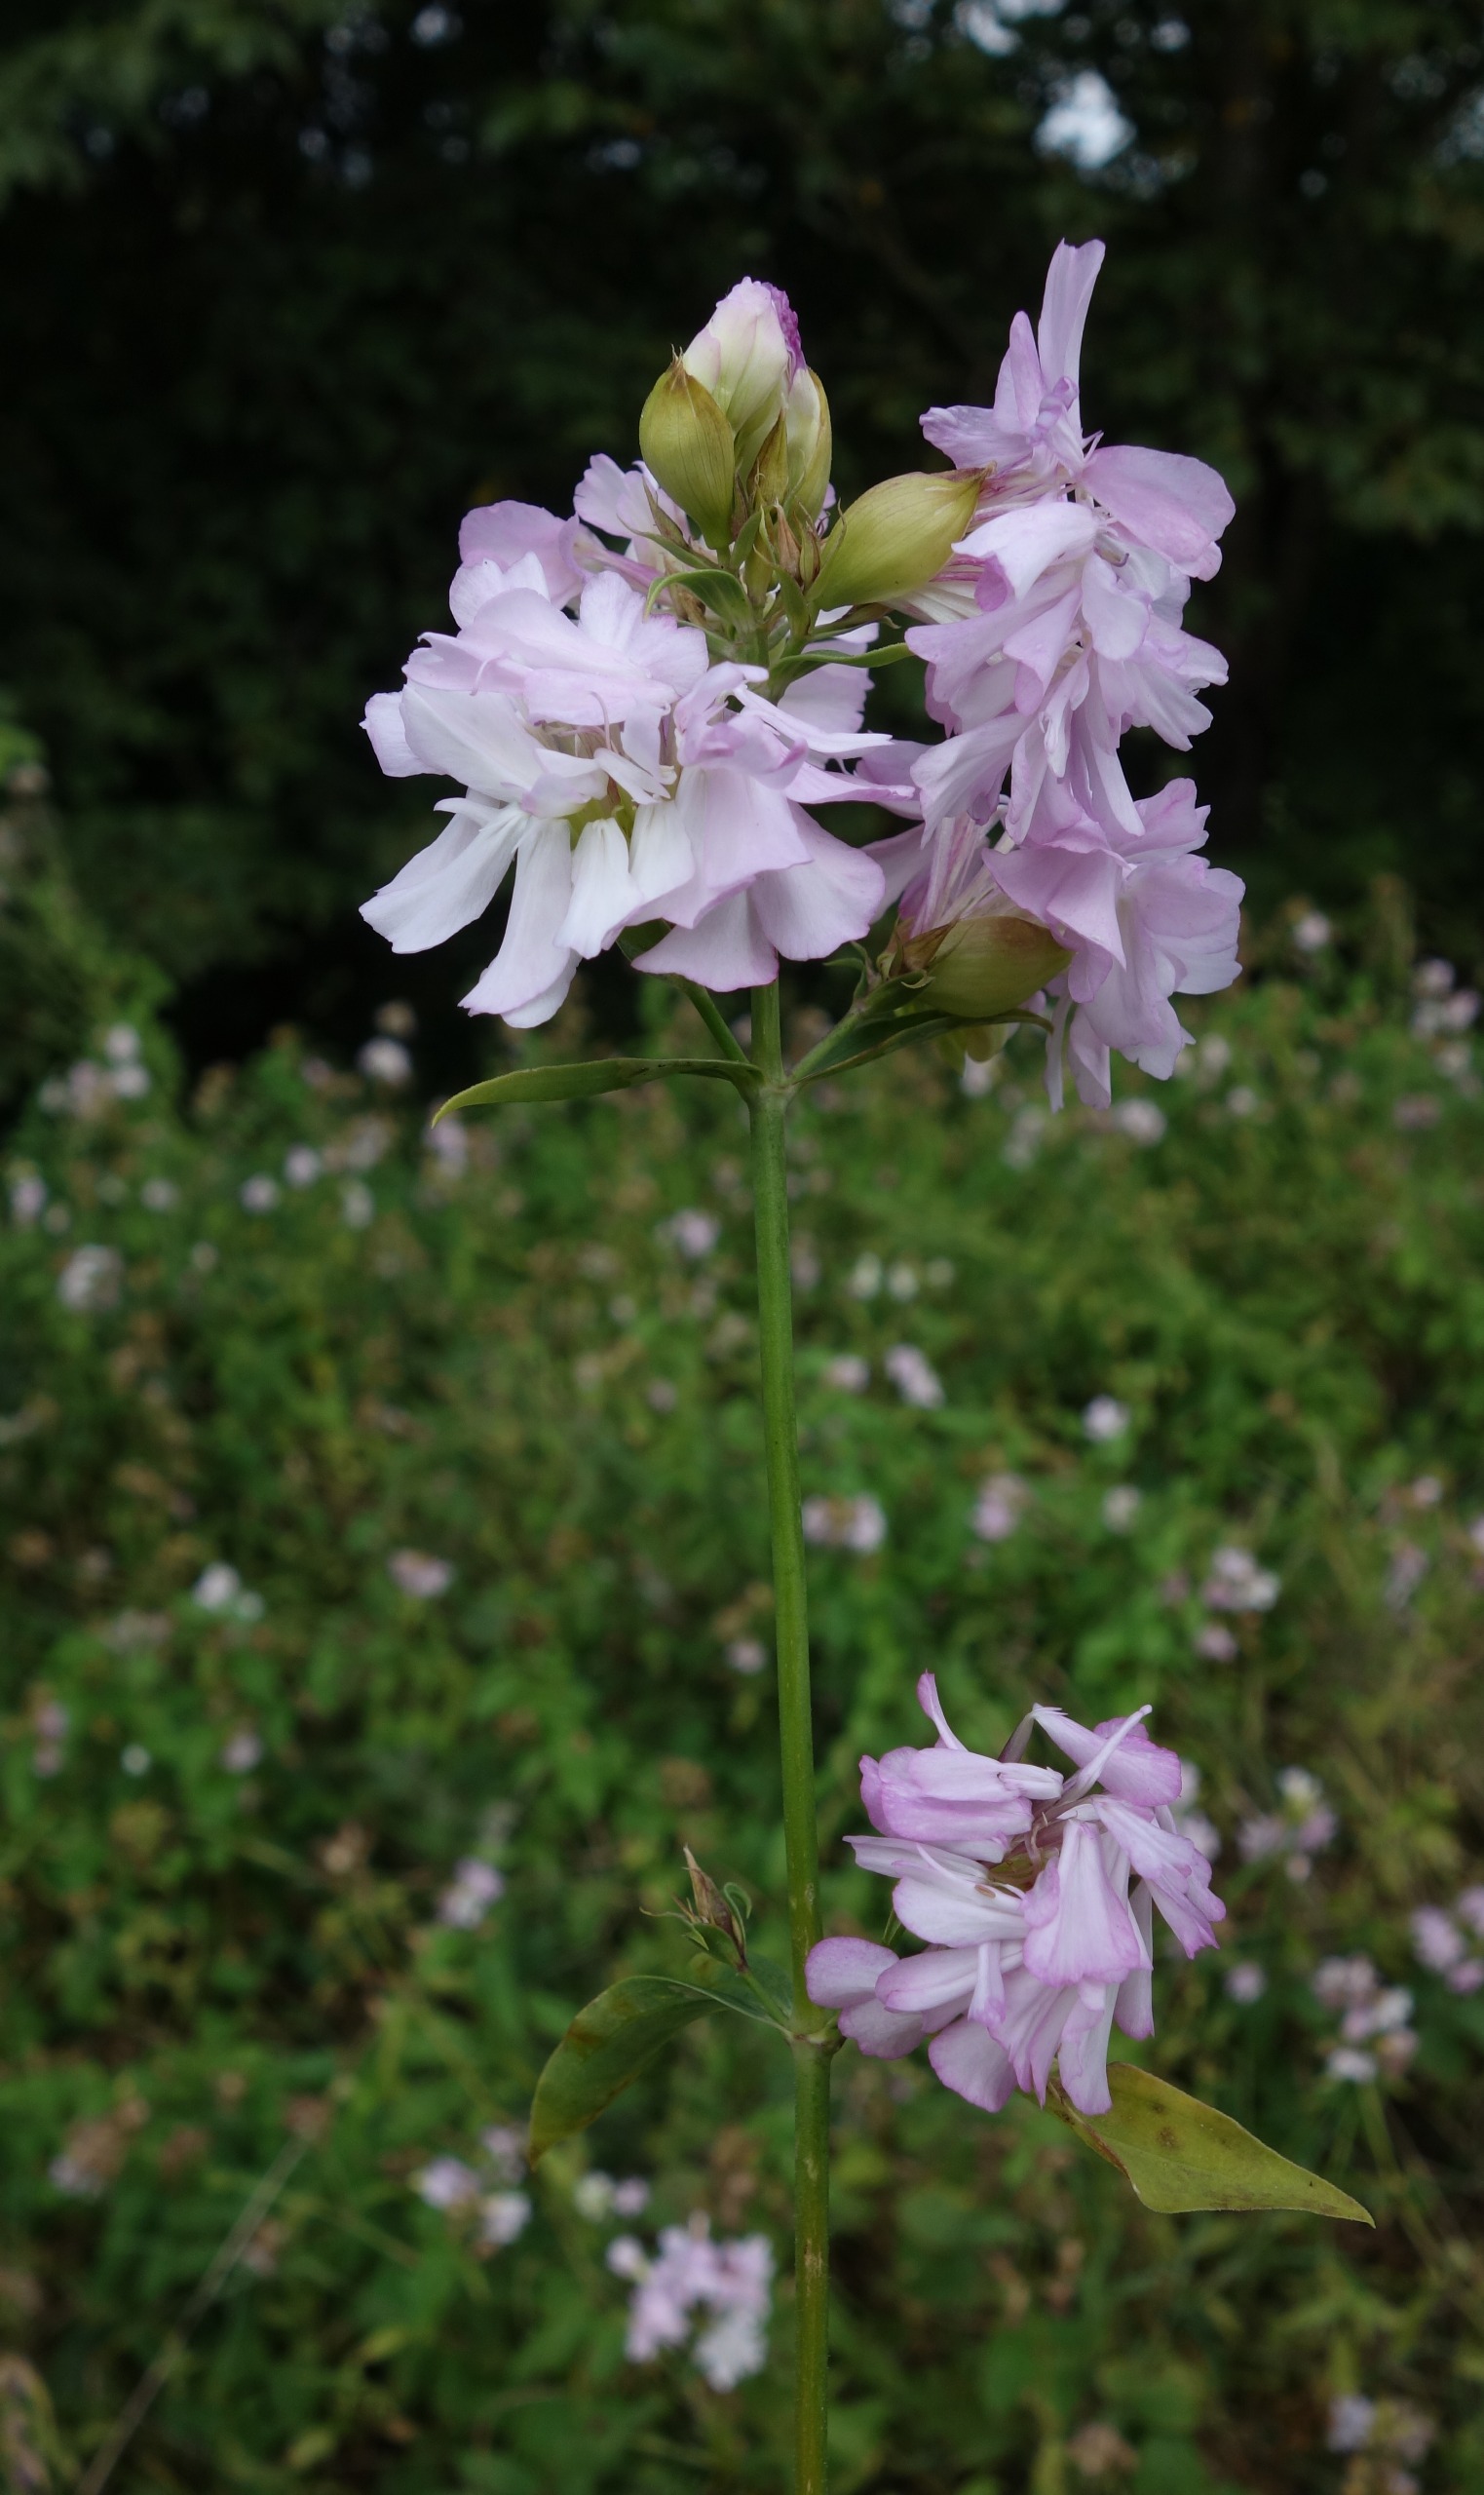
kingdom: Plantae
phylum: Tracheophyta
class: Magnoliopsida
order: Caryophyllales
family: Caryophyllaceae
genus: Saponaria
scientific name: Saponaria officinalis
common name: Sæbeurt
